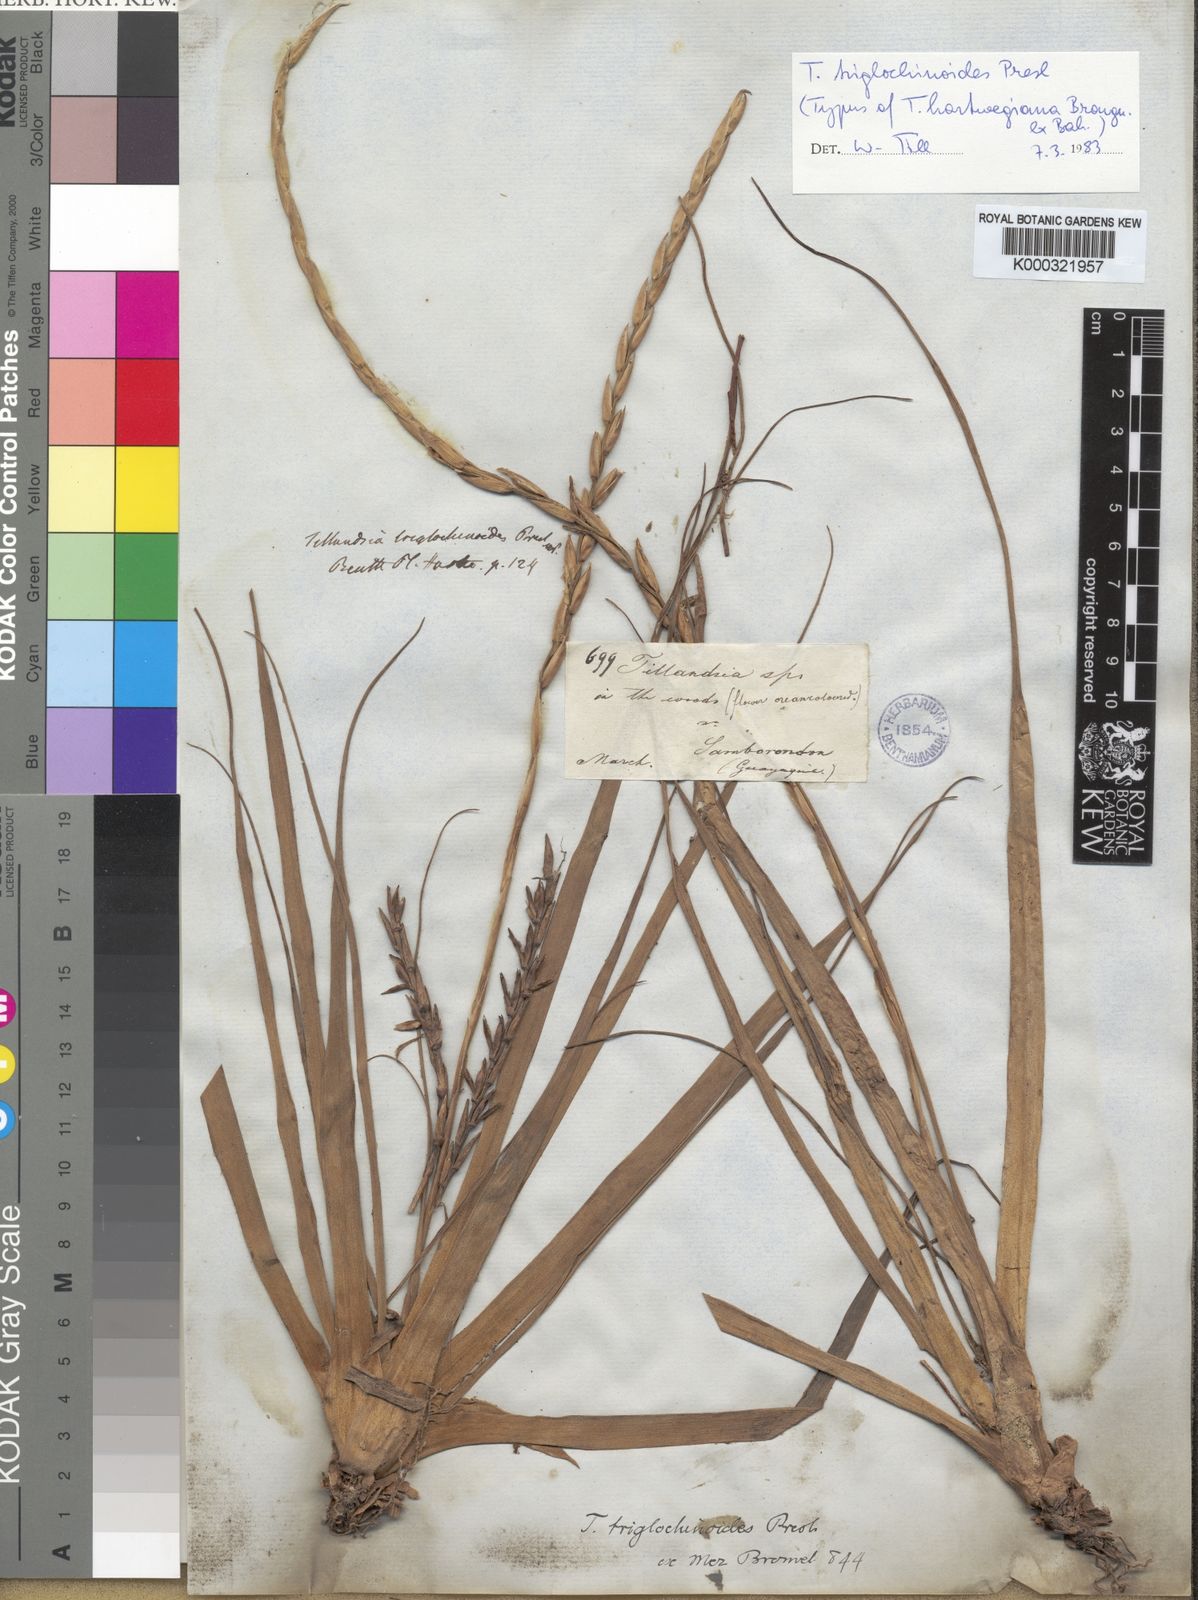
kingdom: Plantae
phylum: Tracheophyta
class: Liliopsida
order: Poales
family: Bromeliaceae
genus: Lemeltonia
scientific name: Lemeltonia triglochinoides
